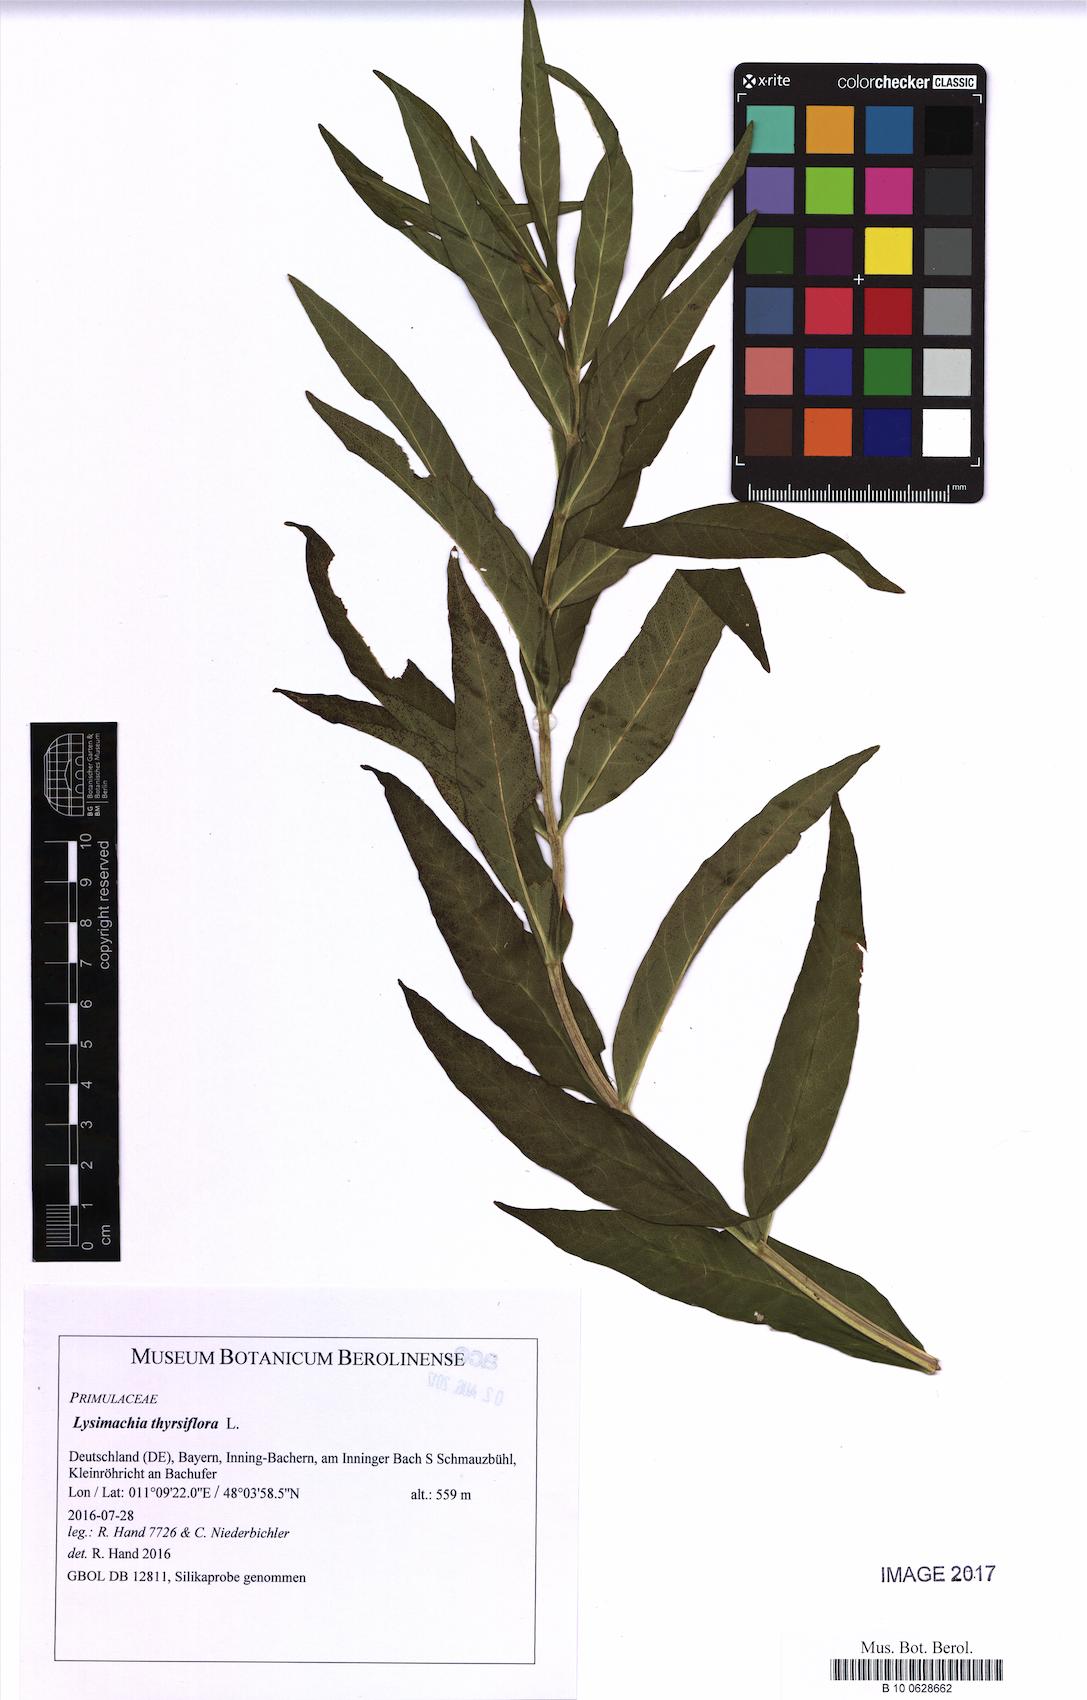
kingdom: Plantae
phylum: Tracheophyta
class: Magnoliopsida
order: Ericales
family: Primulaceae
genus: Lysimachia
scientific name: Lysimachia thyrsiflora
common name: Tufted loosestrife
